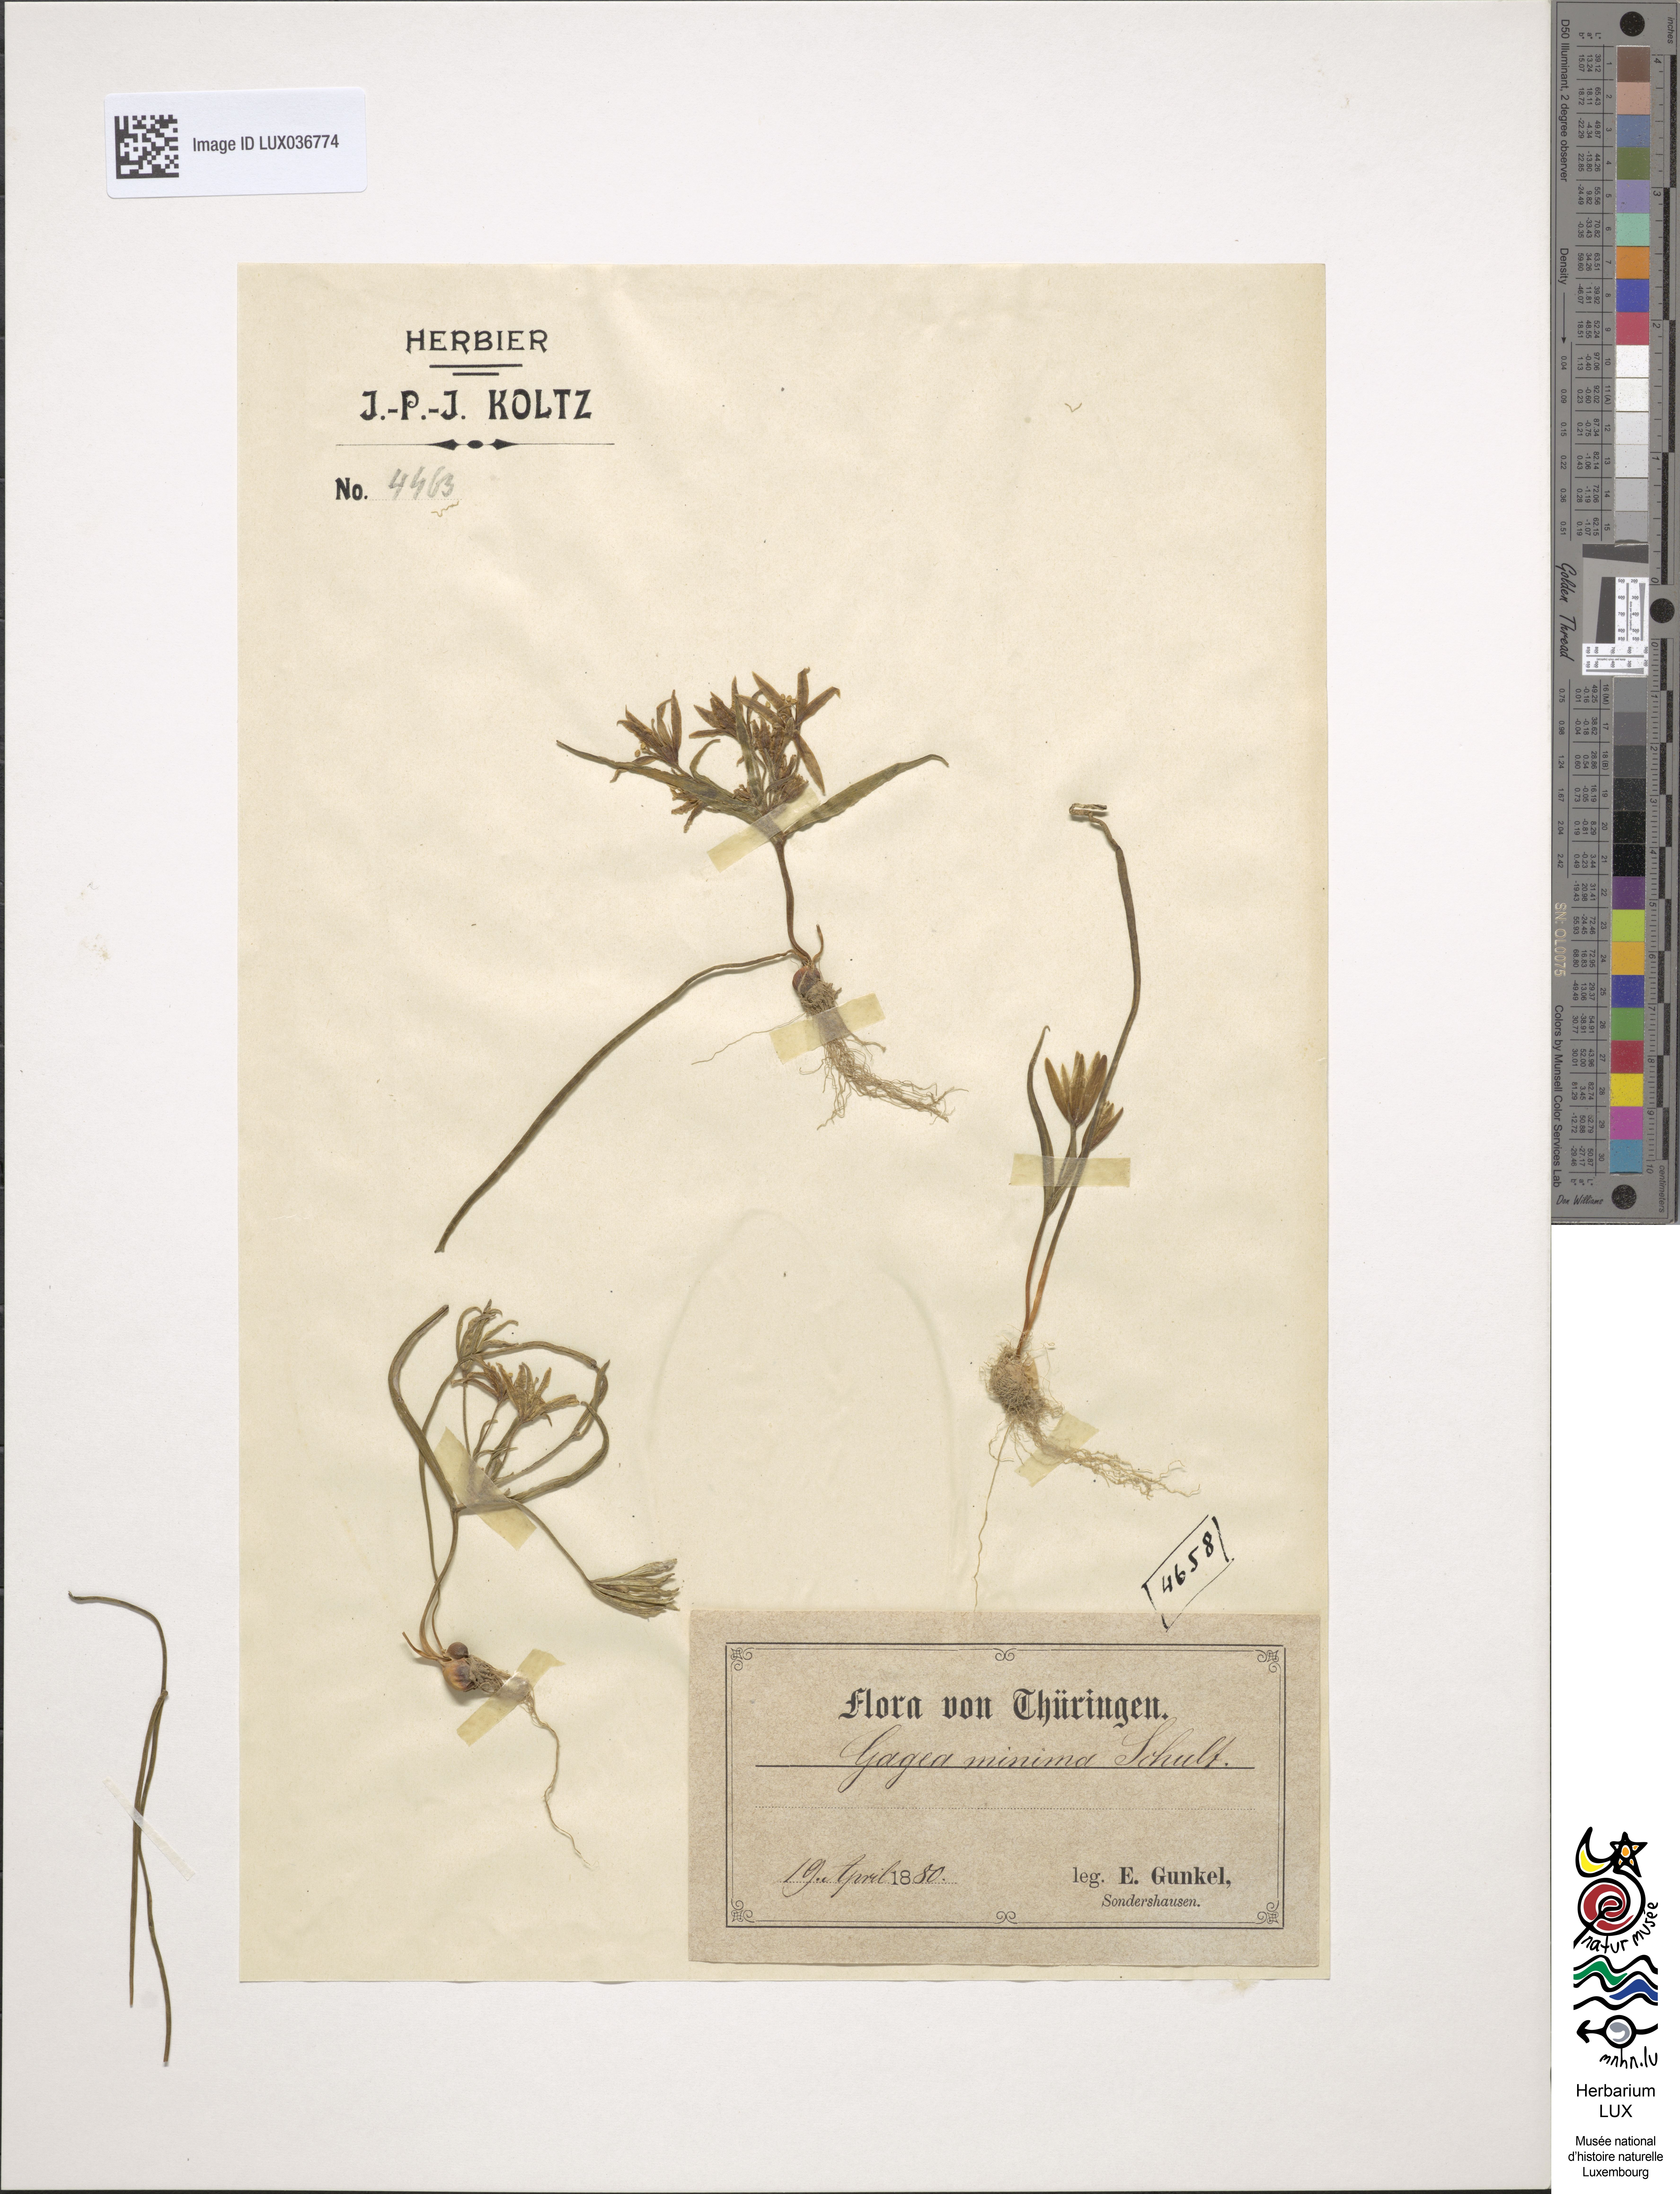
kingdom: Plantae
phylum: Tracheophyta
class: Liliopsida
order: Liliales
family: Liliaceae
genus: Gagea
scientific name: Gagea minima
